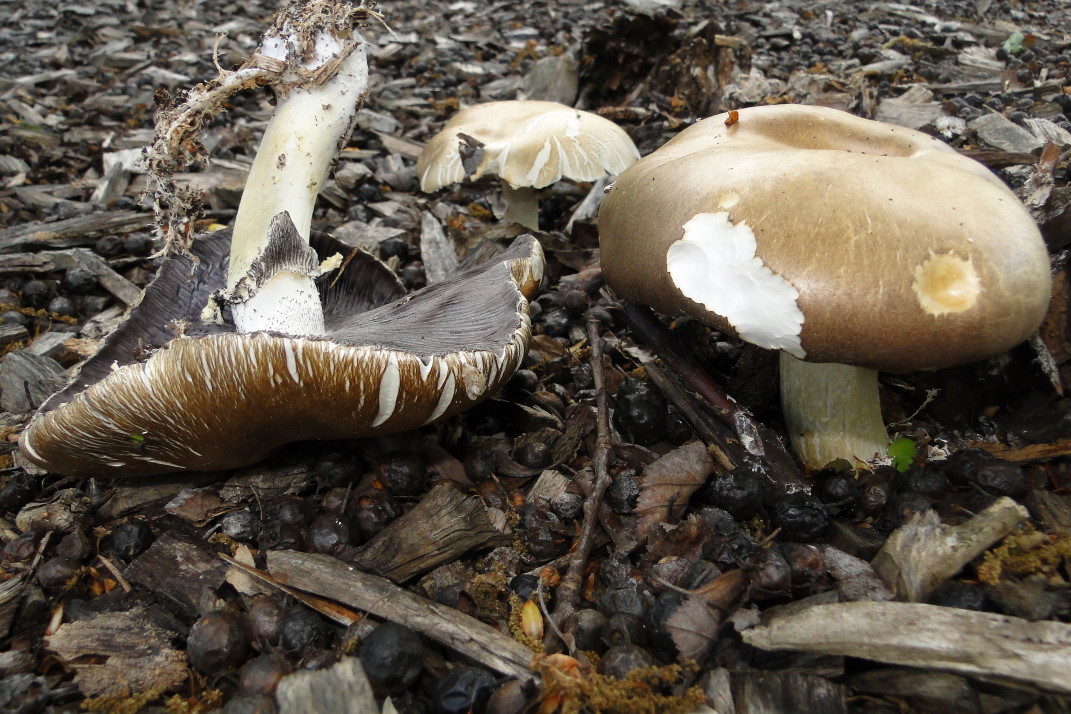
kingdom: Fungi
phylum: Basidiomycota
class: Agaricomycetes
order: Agaricales
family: Strophariaceae
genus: Stropharia
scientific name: Stropharia rugosoannulata
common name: rødbrun bredblad
